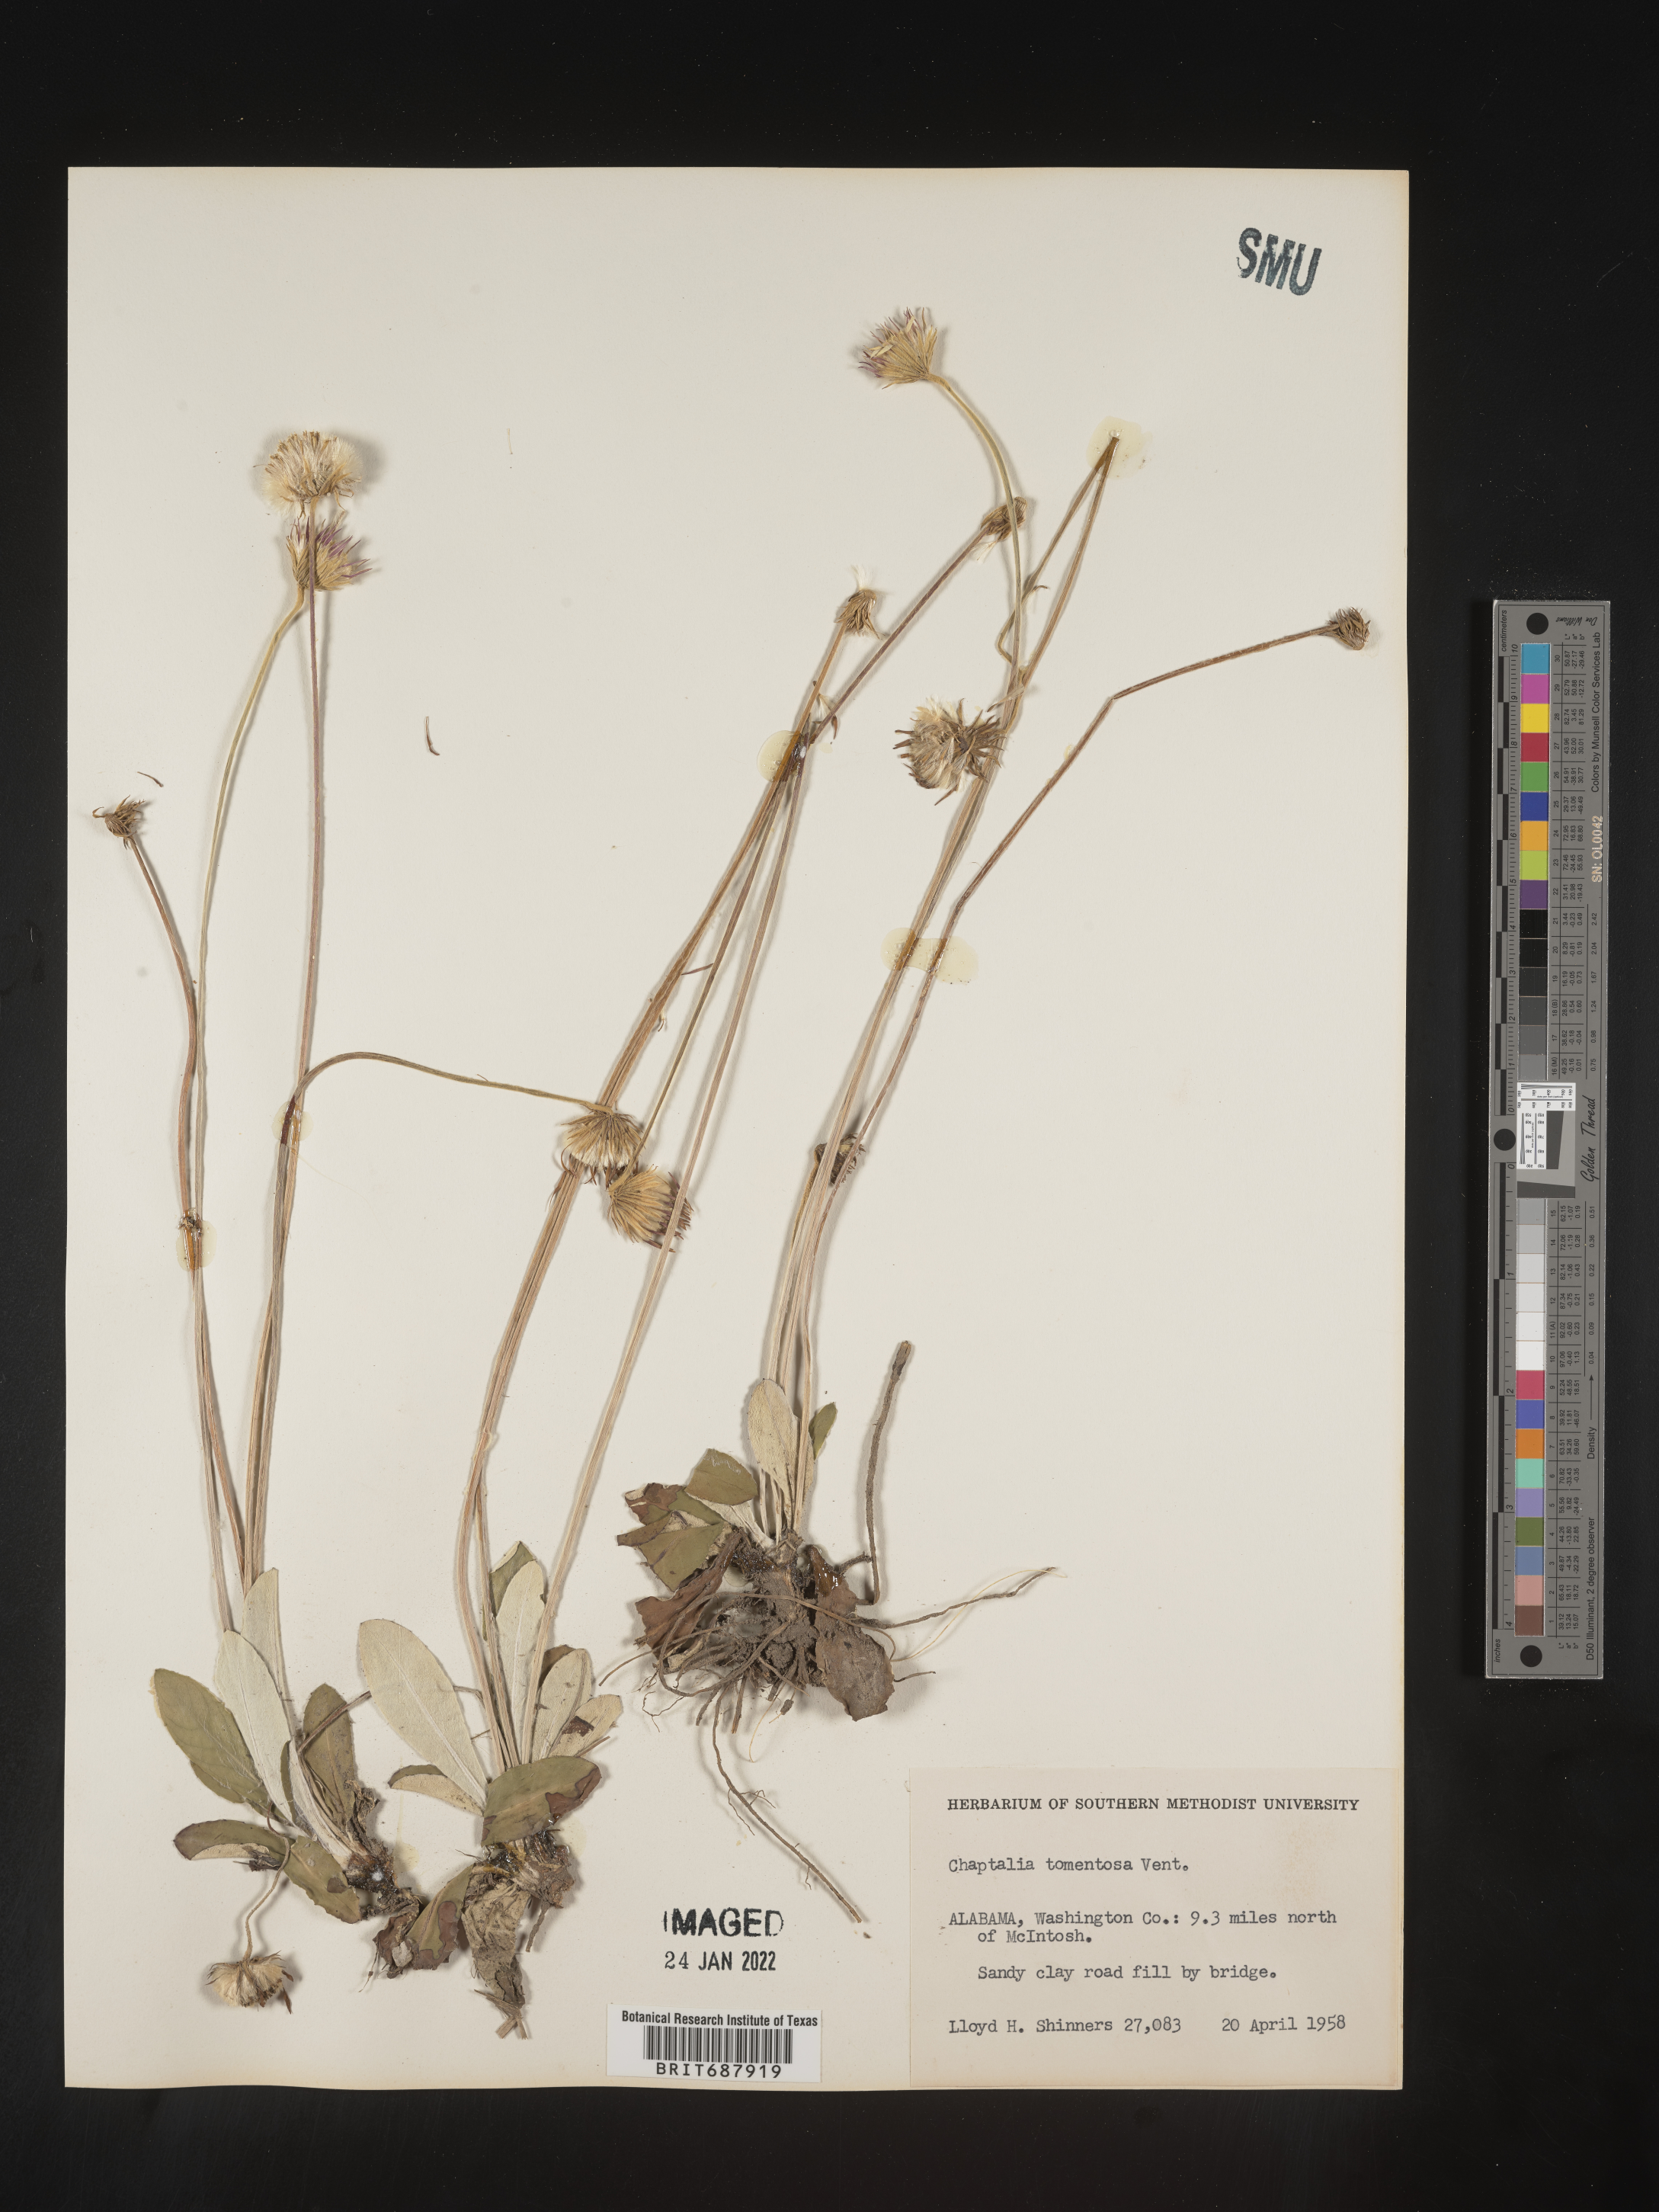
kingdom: Plantae
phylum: Tracheophyta
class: Magnoliopsida
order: Asterales
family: Asteraceae
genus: Chaptalia
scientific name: Chaptalia tomentosa
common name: Woolly sunbonnet
